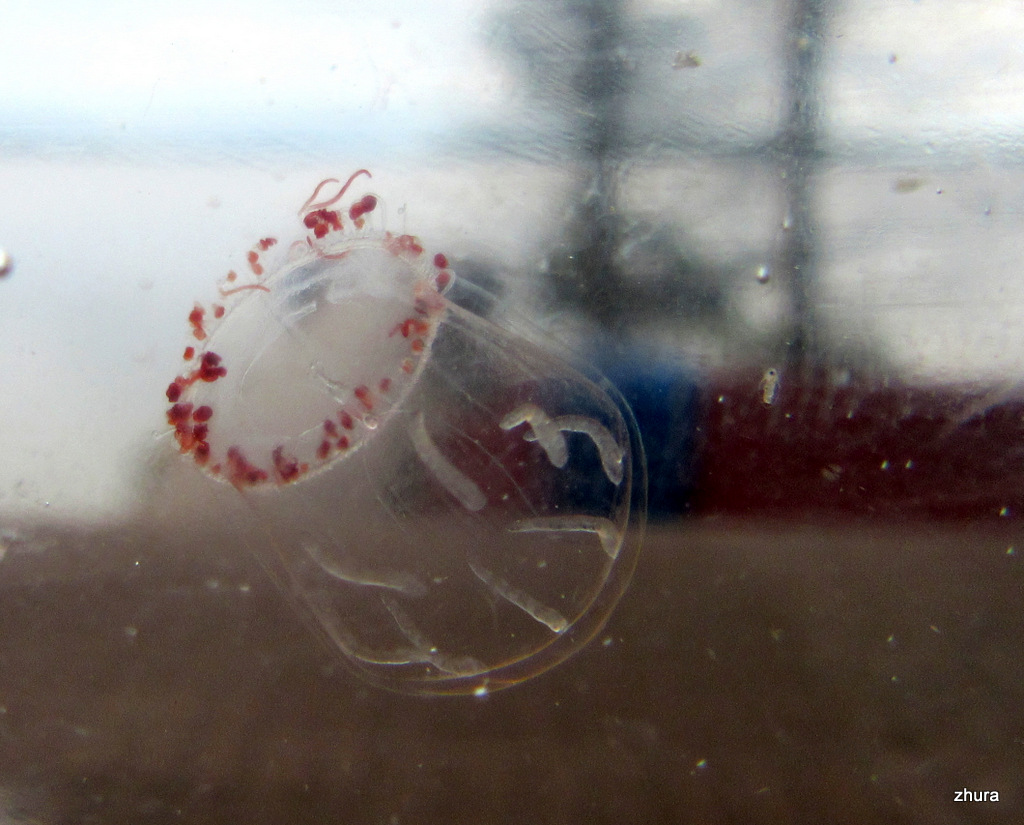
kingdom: Animalia
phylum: Cnidaria
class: Hydrozoa
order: Trachymedusae
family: Rhopalonematidae
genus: Aglantha
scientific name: Aglantha digitale
